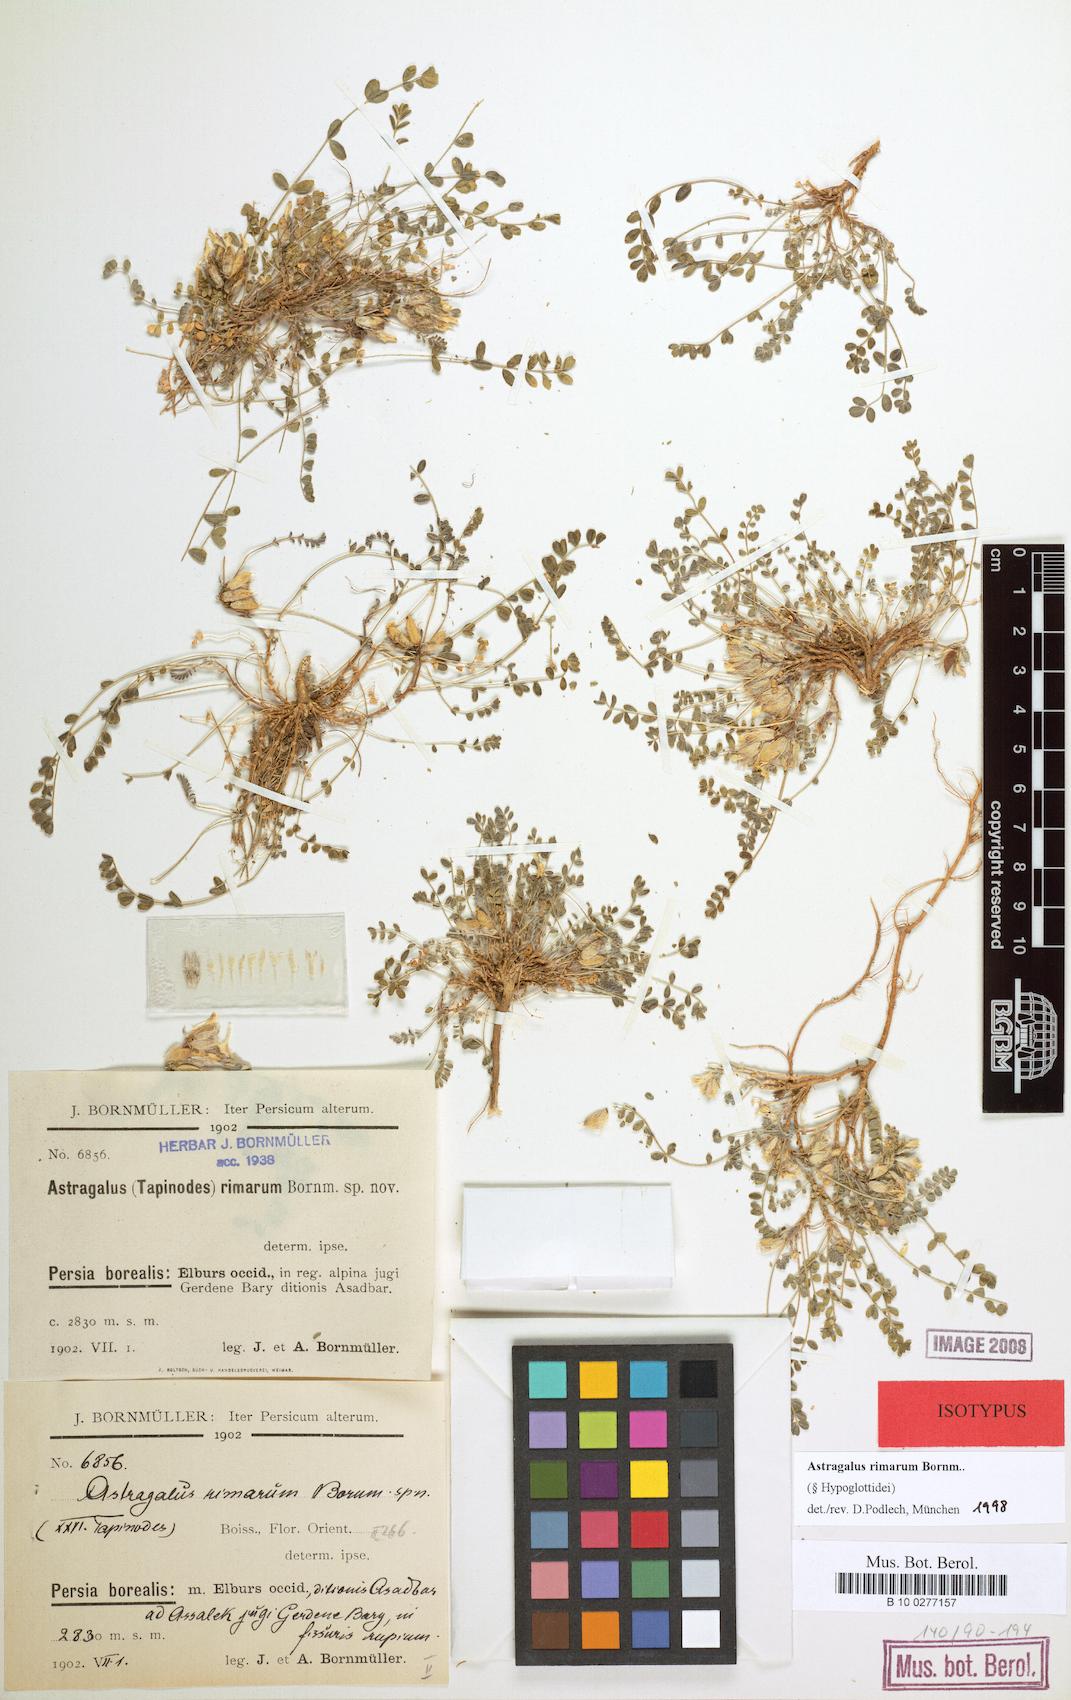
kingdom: Plantae
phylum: Tracheophyta
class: Magnoliopsida
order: Fabales
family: Fabaceae
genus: Astragalus
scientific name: Astragalus rimarum
